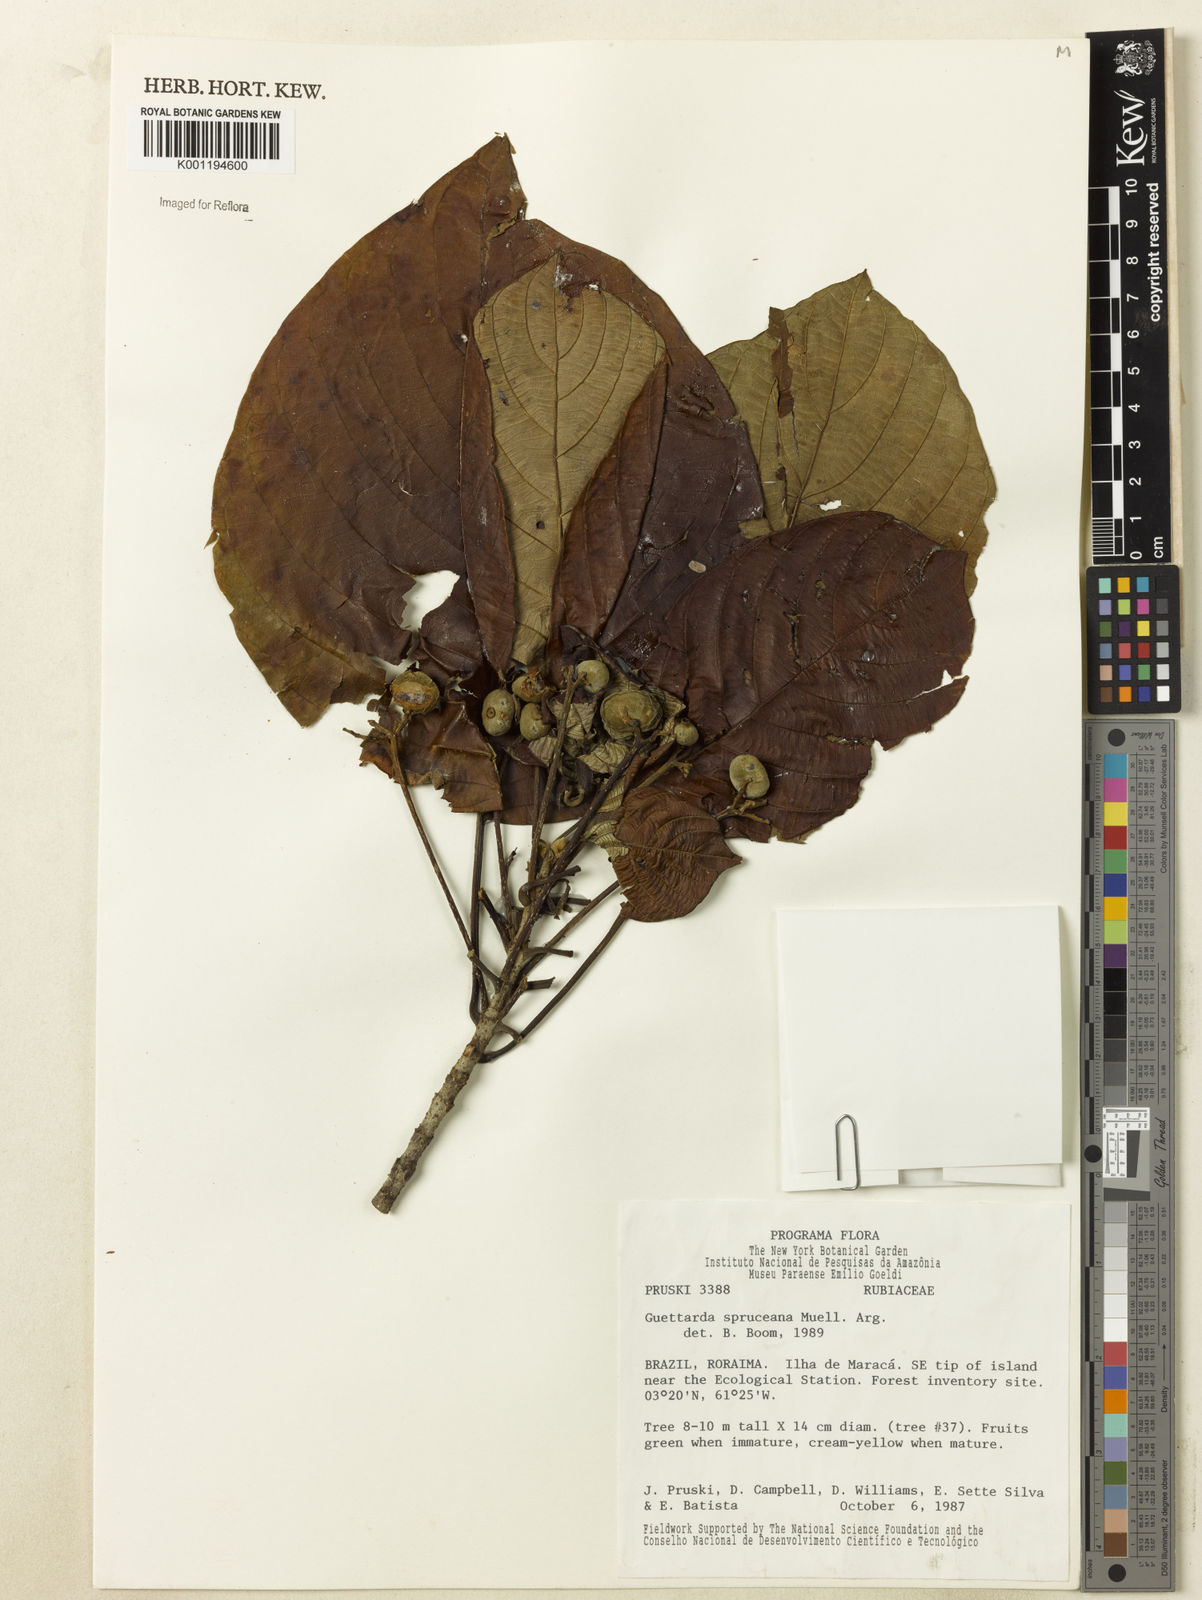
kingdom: Plantae
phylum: Tracheophyta
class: Magnoliopsida
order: Gentianales
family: Rubiaceae
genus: Guettarda
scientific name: Guettarda
